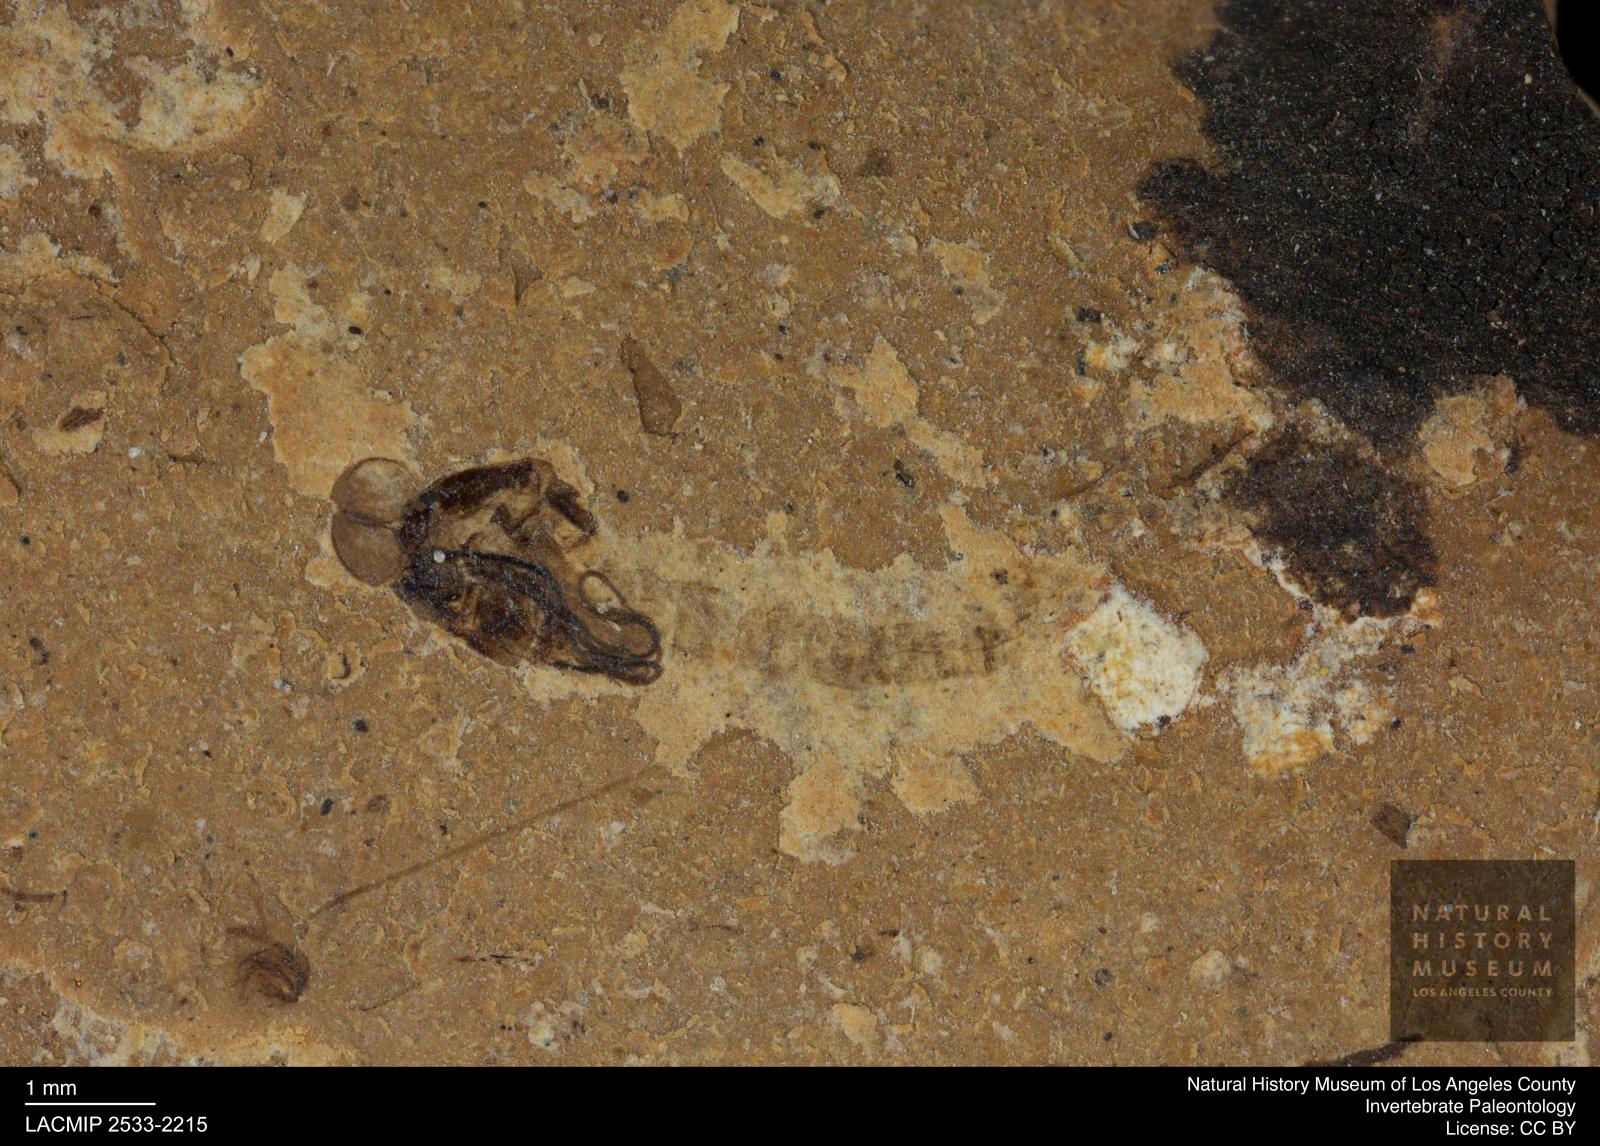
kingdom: Animalia
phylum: Arthropoda
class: Insecta
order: Diptera
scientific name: Diptera
